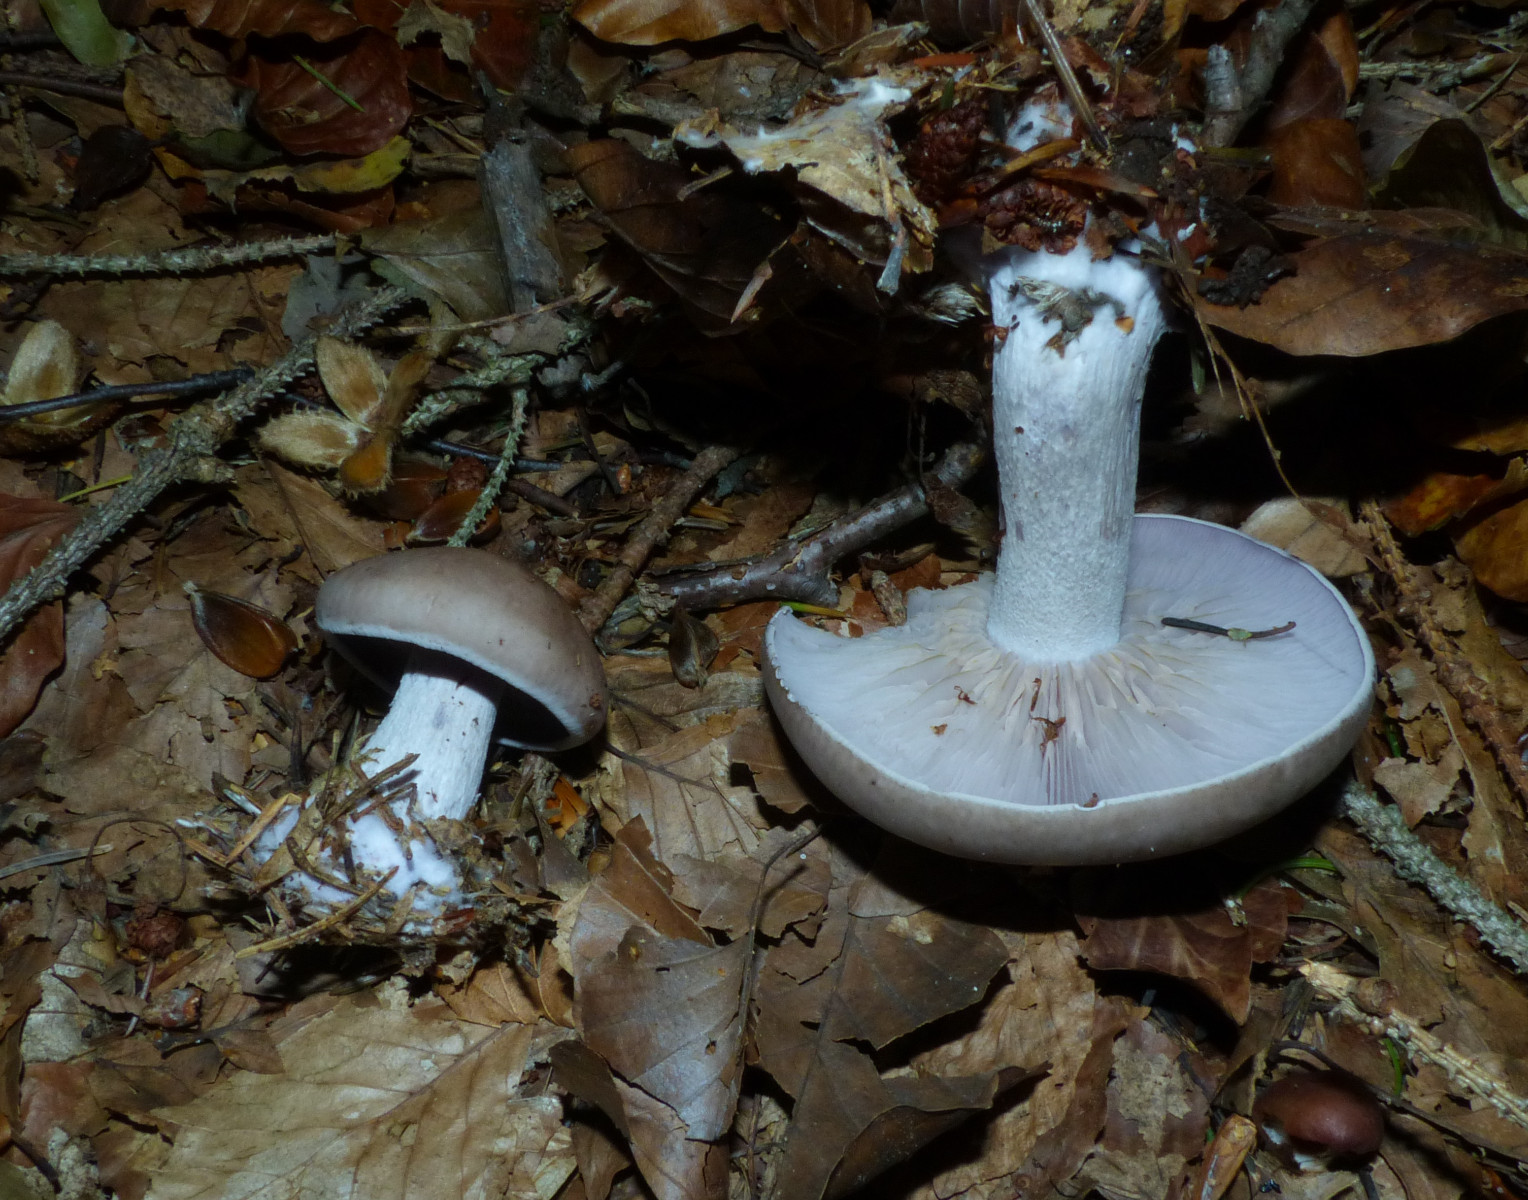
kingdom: Fungi
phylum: Basidiomycota
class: Agaricomycetes
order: Agaricales
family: Tricholomataceae
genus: Lepista
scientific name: Lepista nuda
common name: violet hekseringshat
